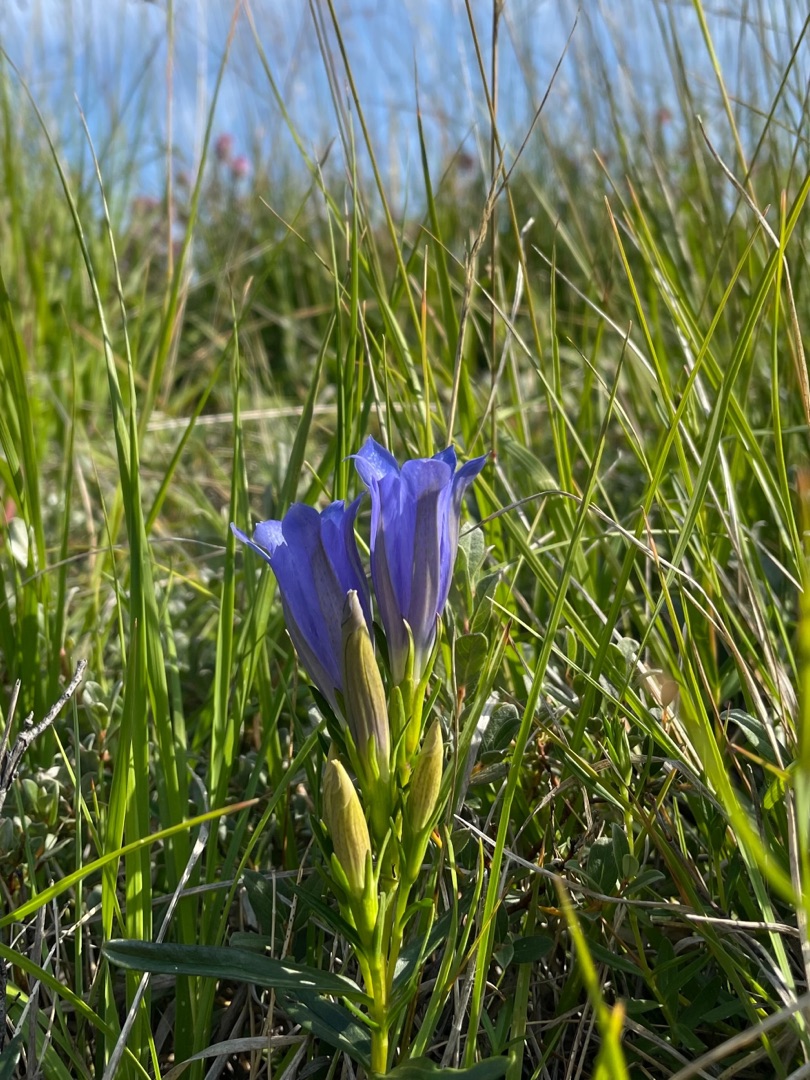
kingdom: Plantae
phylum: Tracheophyta
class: Magnoliopsida
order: Gentianales
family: Gentianaceae
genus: Gentiana
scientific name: Gentiana pneumonanthe
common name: Klokke-ensian
